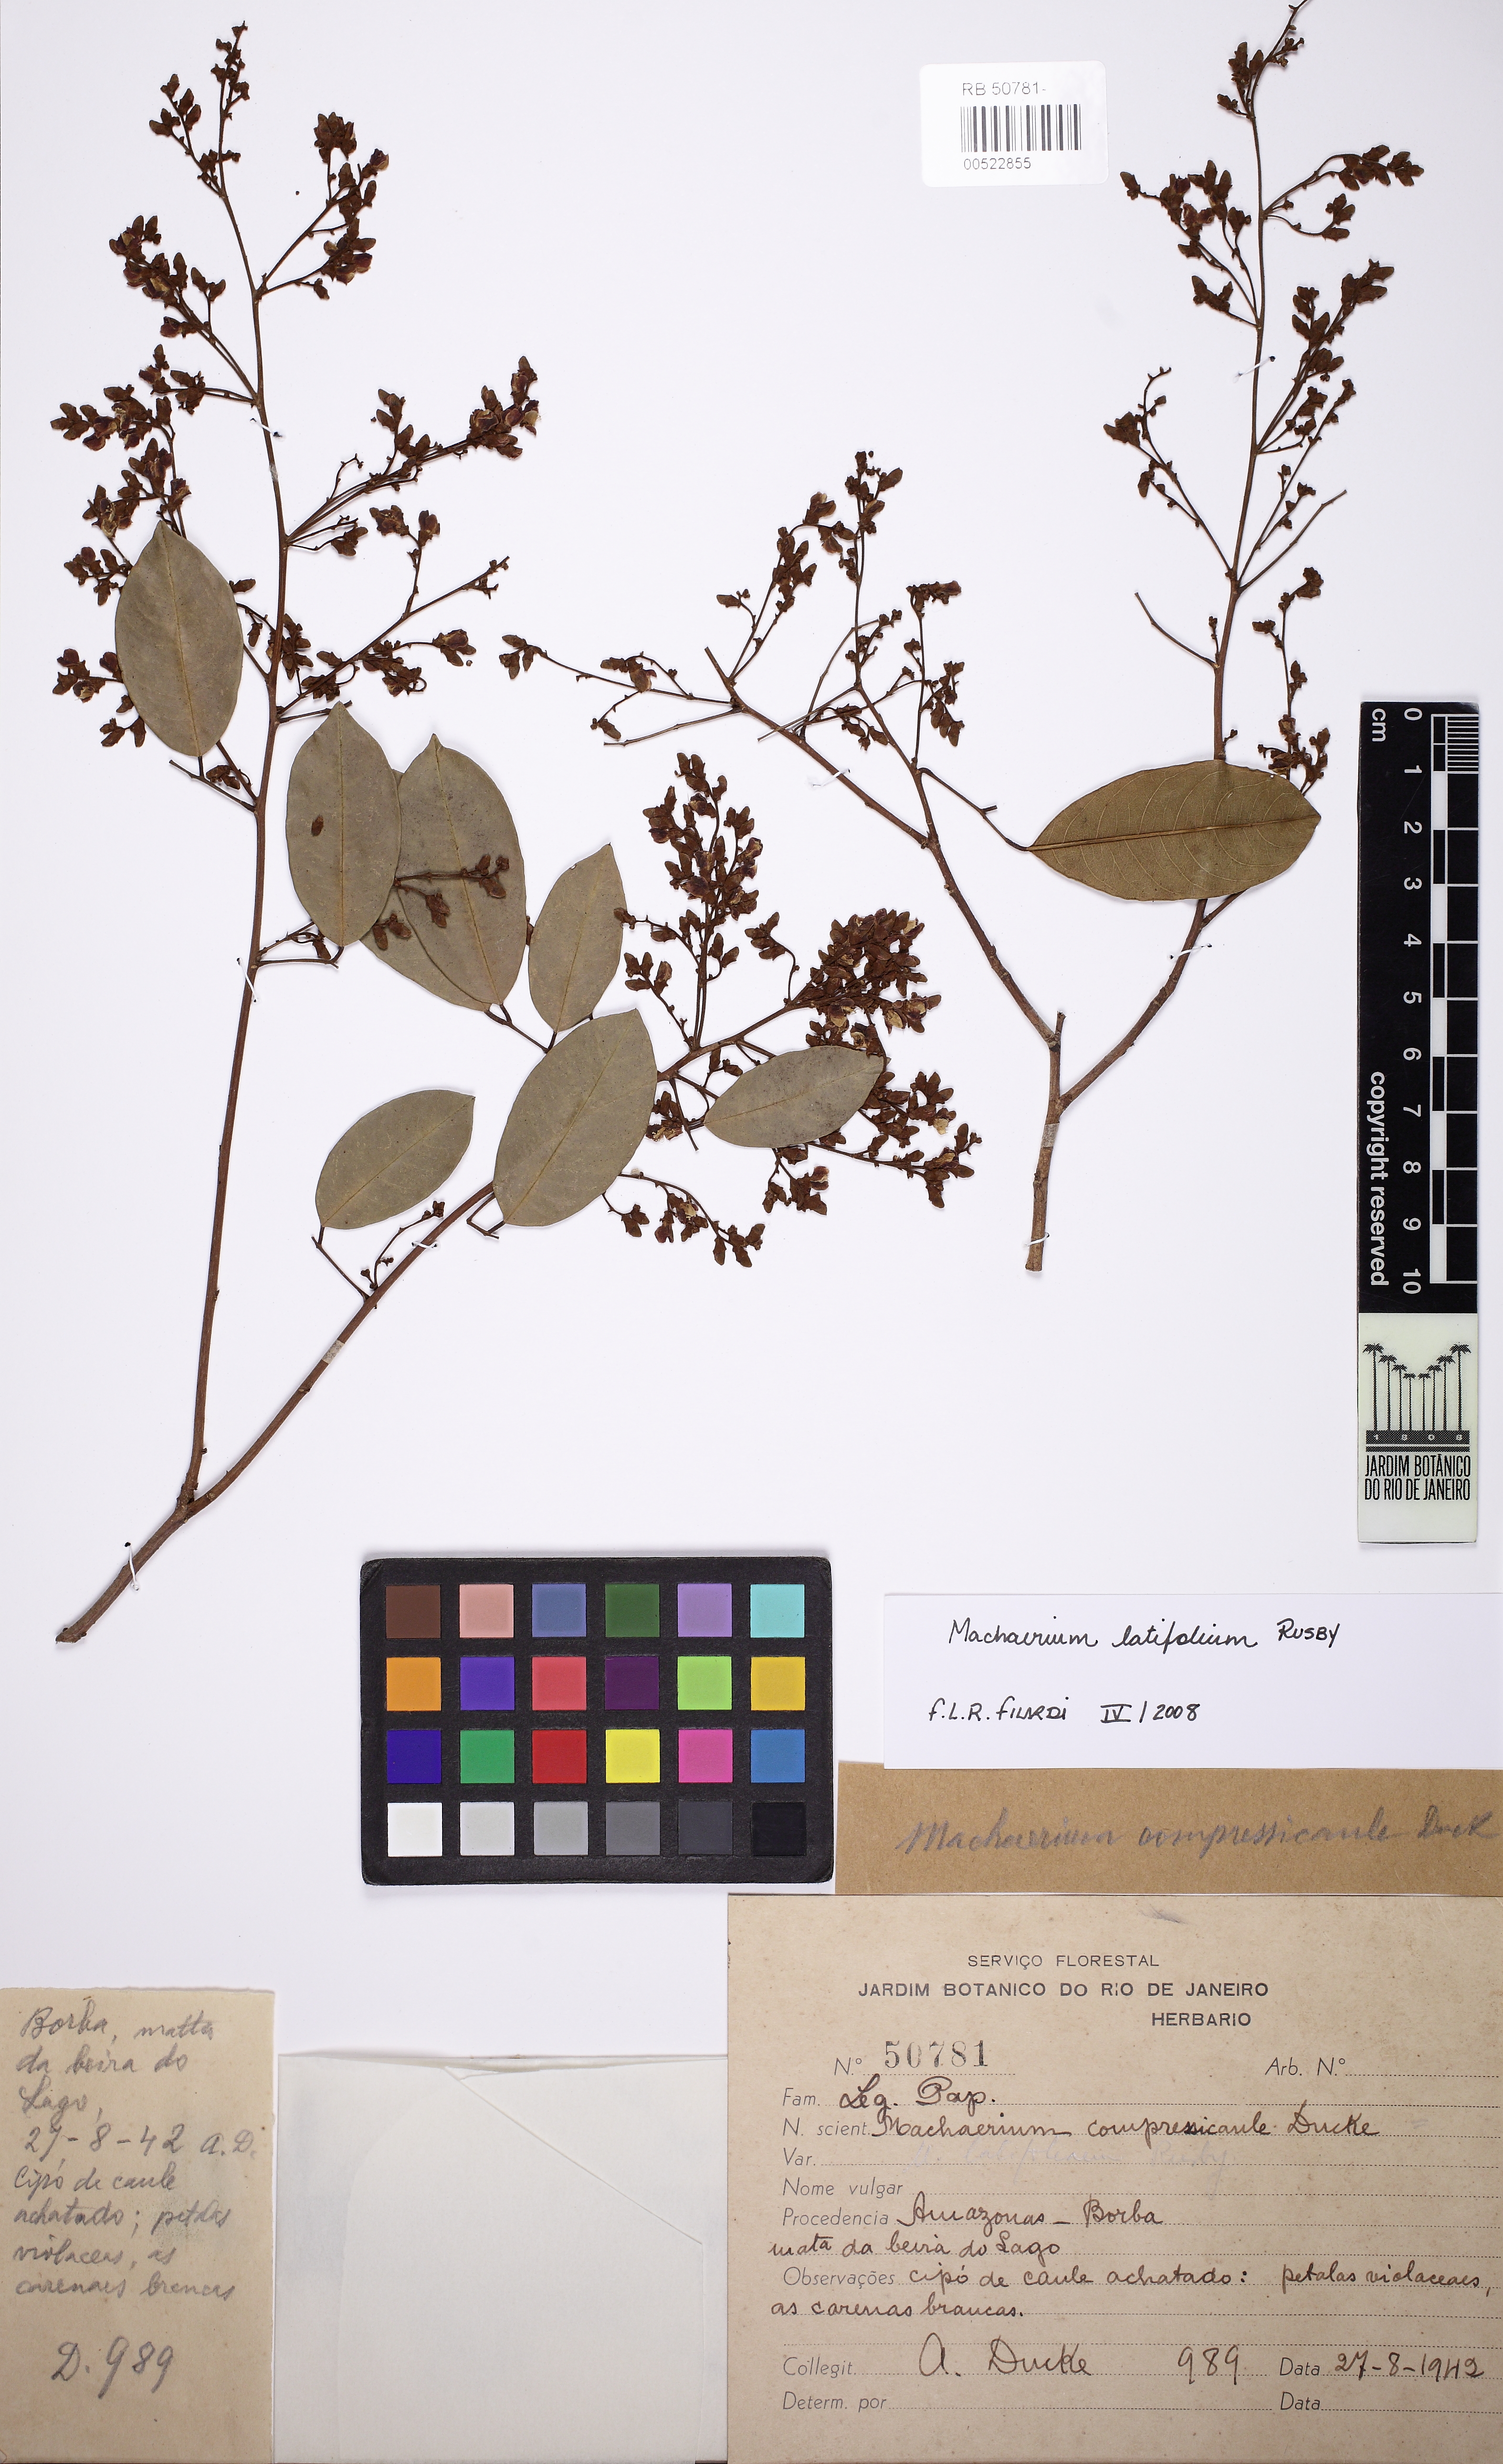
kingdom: Plantae
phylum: Tracheophyta
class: Magnoliopsida
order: Fabales
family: Fabaceae
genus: Machaerium
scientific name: Machaerium latifolium
